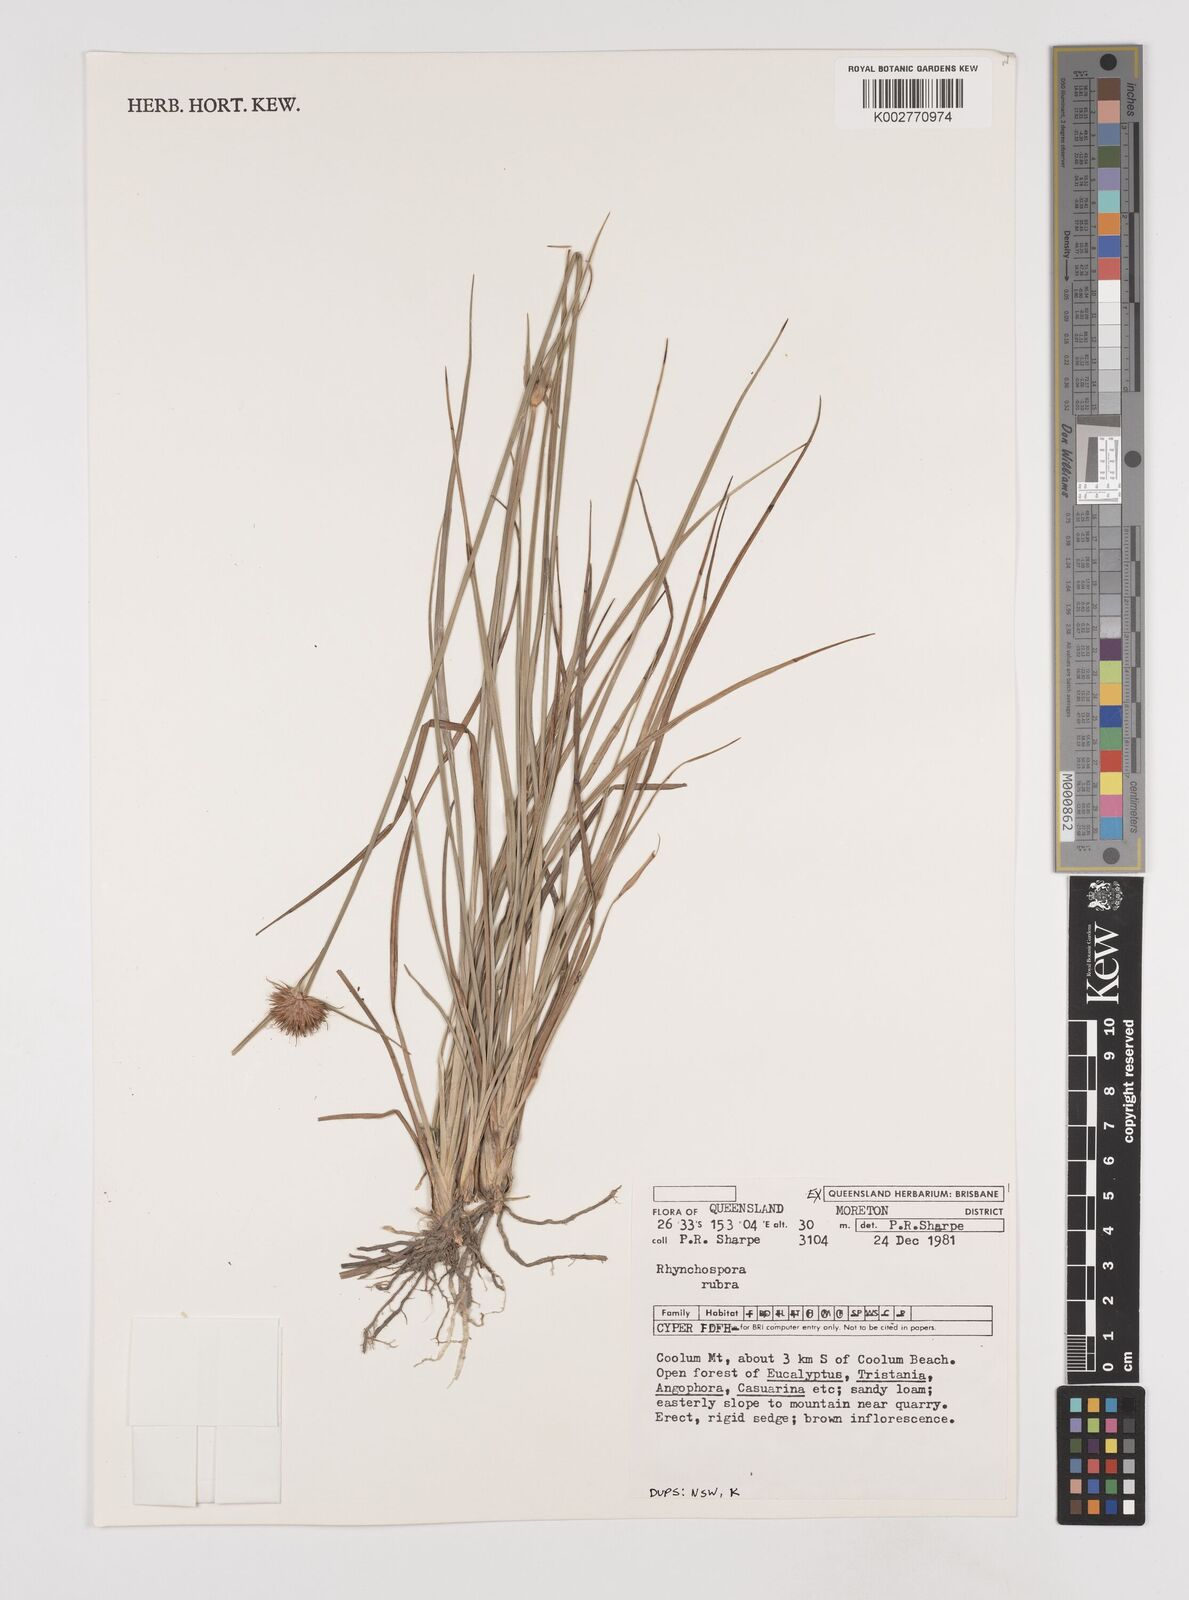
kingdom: Plantae
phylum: Tracheophyta
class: Liliopsida
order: Poales
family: Cyperaceae
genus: Rhynchospora
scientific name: Rhynchospora rubra
